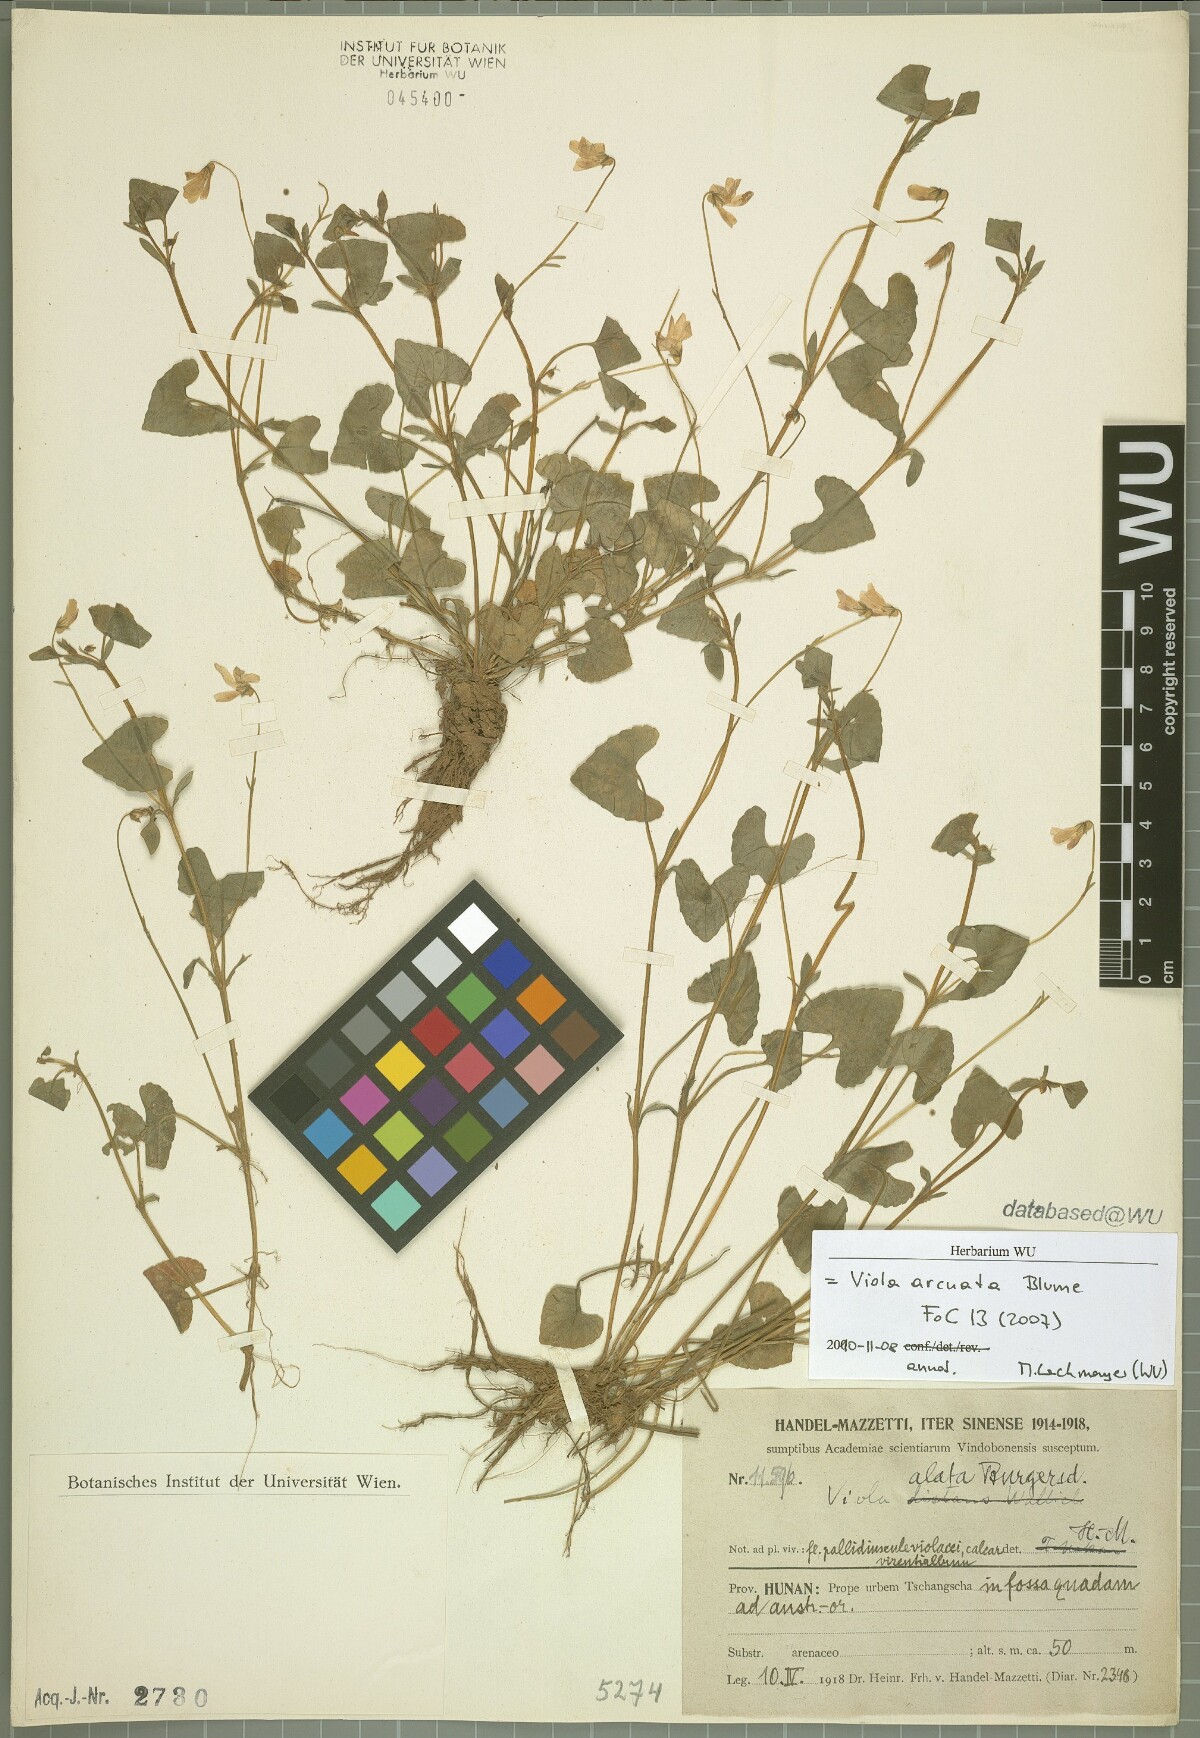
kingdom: Plantae
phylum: Tracheophyta
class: Magnoliopsida
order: Malpighiales
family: Violaceae
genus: Viola
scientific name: Viola hamiltoniana
